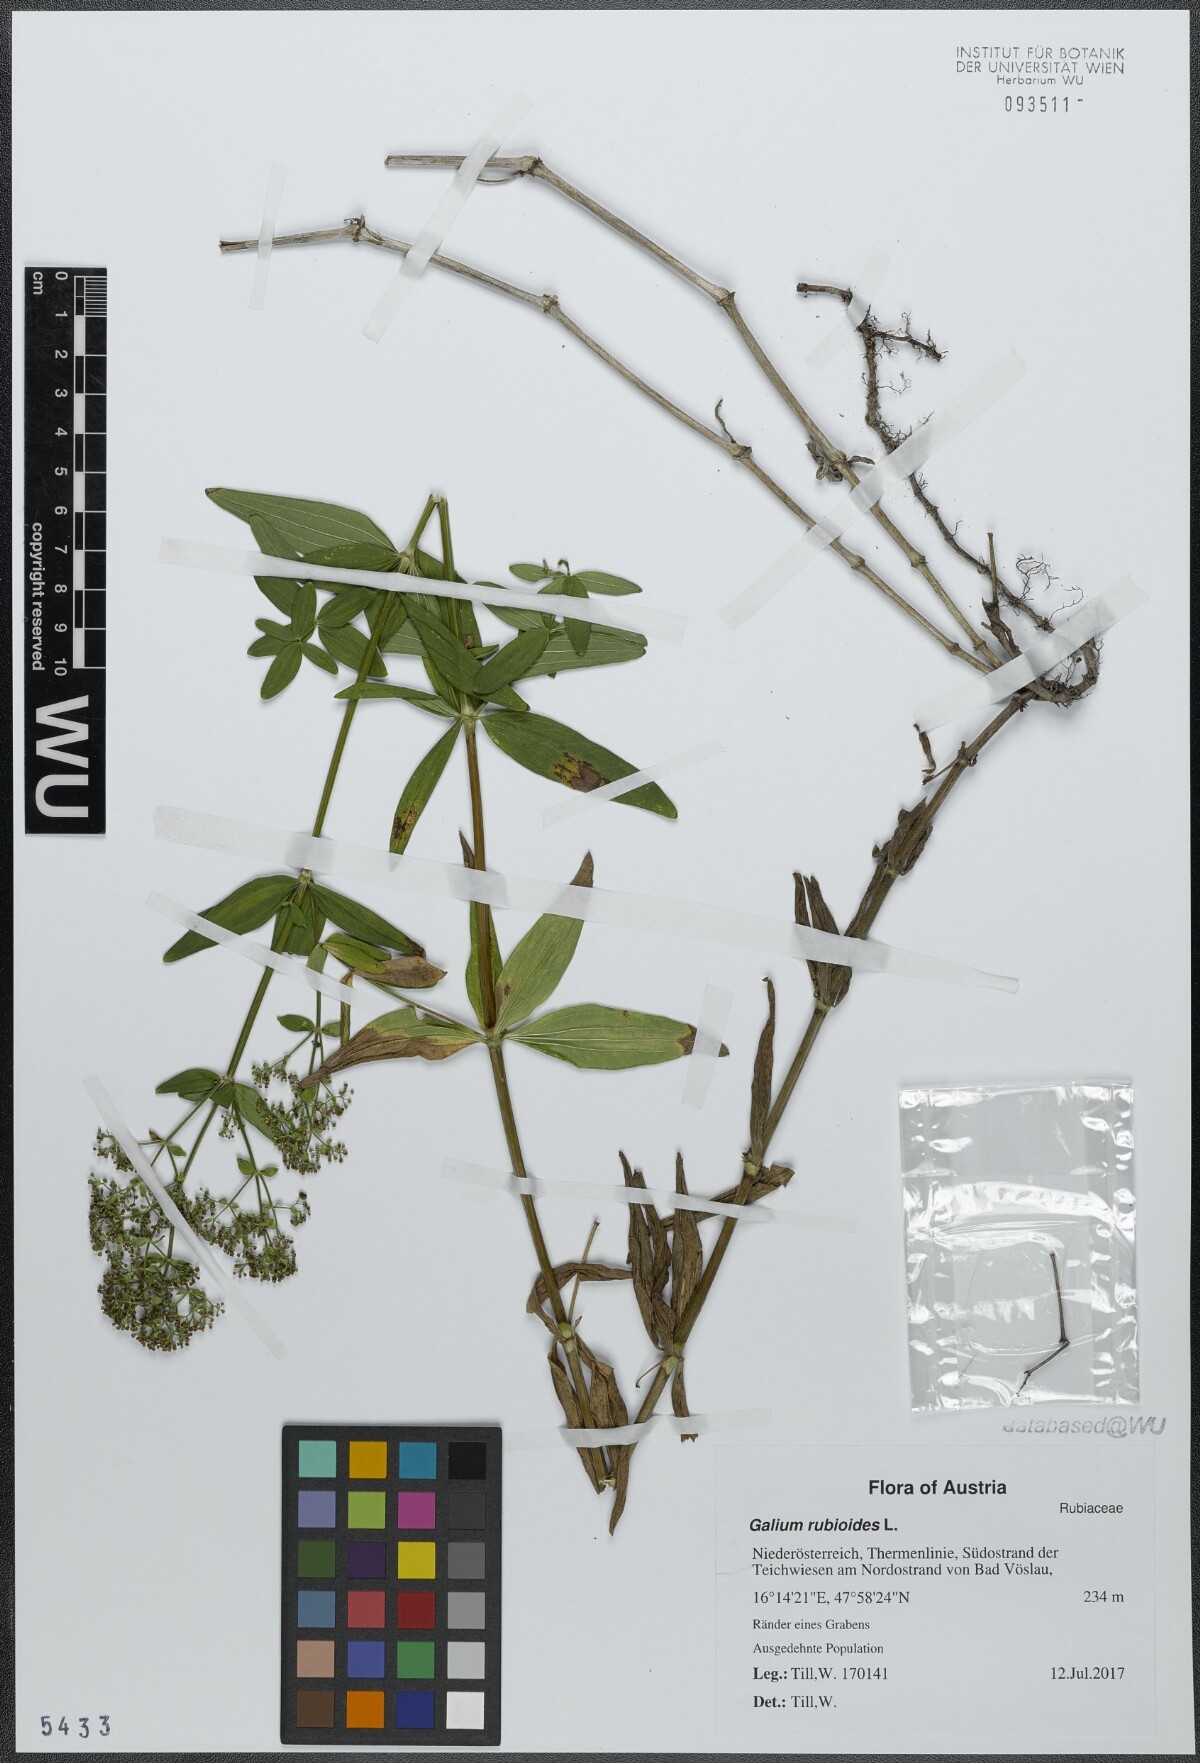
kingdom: Plantae
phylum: Tracheophyta
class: Magnoliopsida
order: Gentianales
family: Rubiaceae
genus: Galium
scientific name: Galium rubioides
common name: European bedstraw
